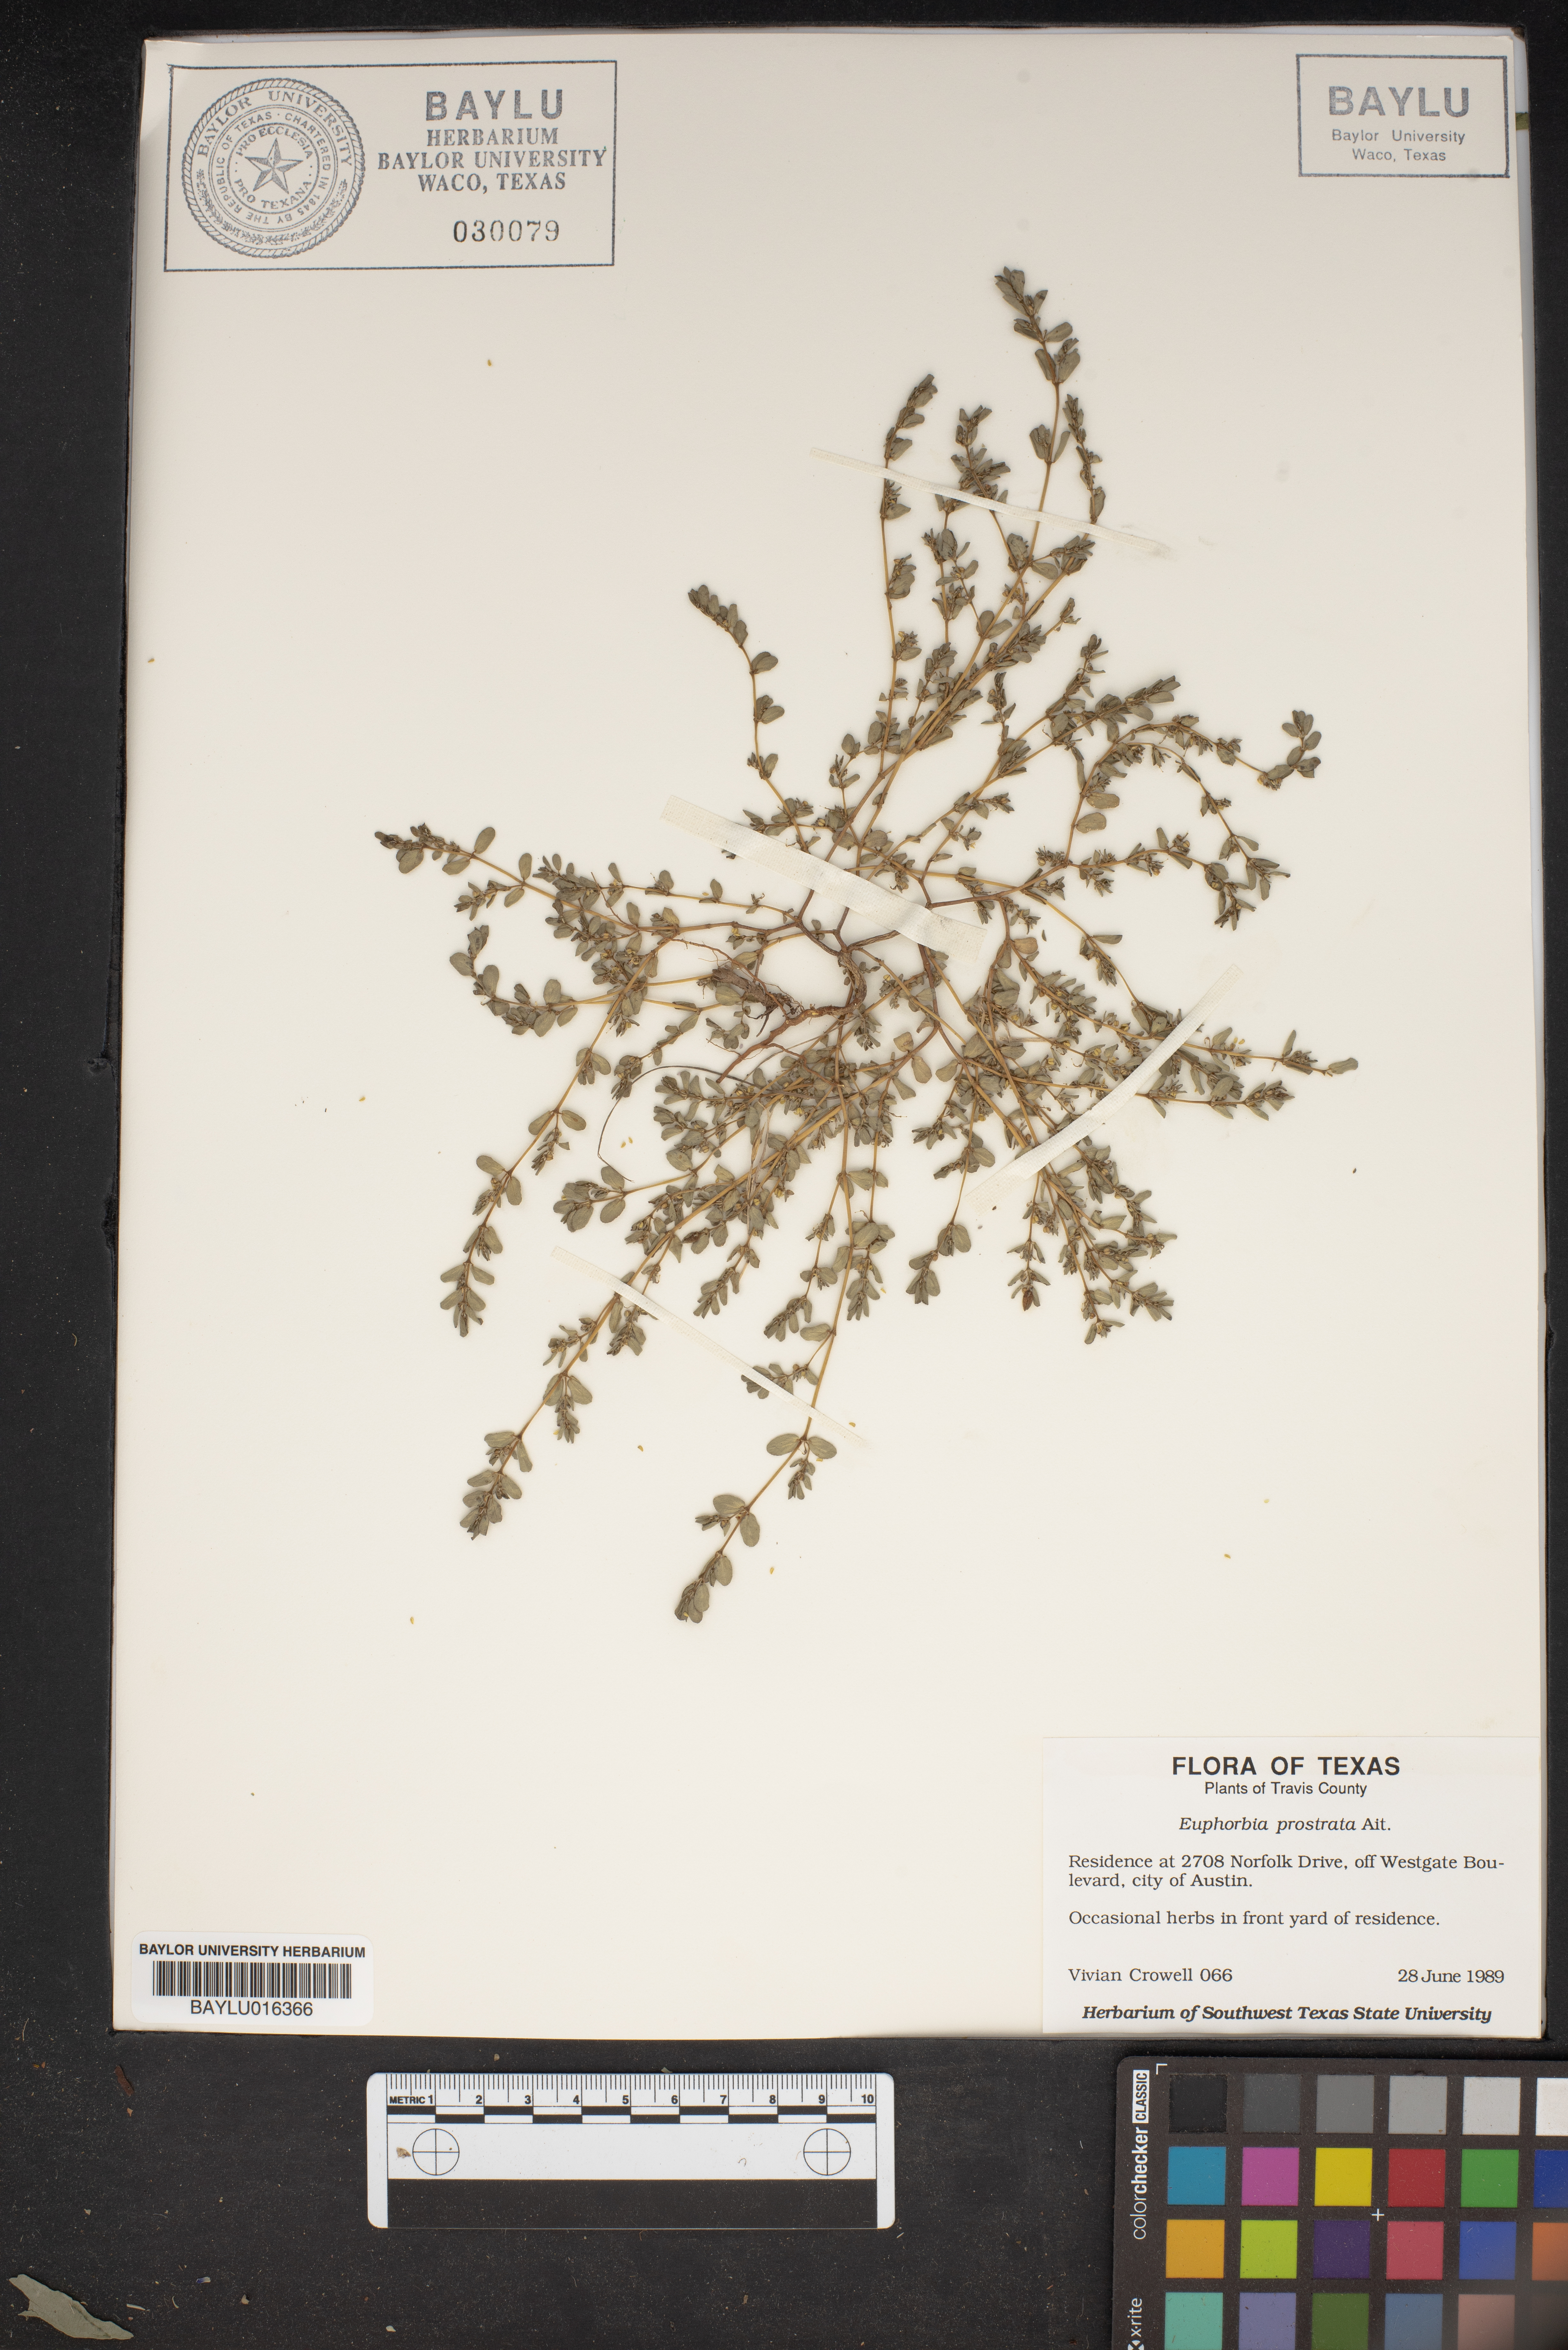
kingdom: Plantae
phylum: Tracheophyta
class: Magnoliopsida
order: Malpighiales
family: Euphorbiaceae
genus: Euphorbia
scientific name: Euphorbia prostrata
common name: Prostrate sandmat
